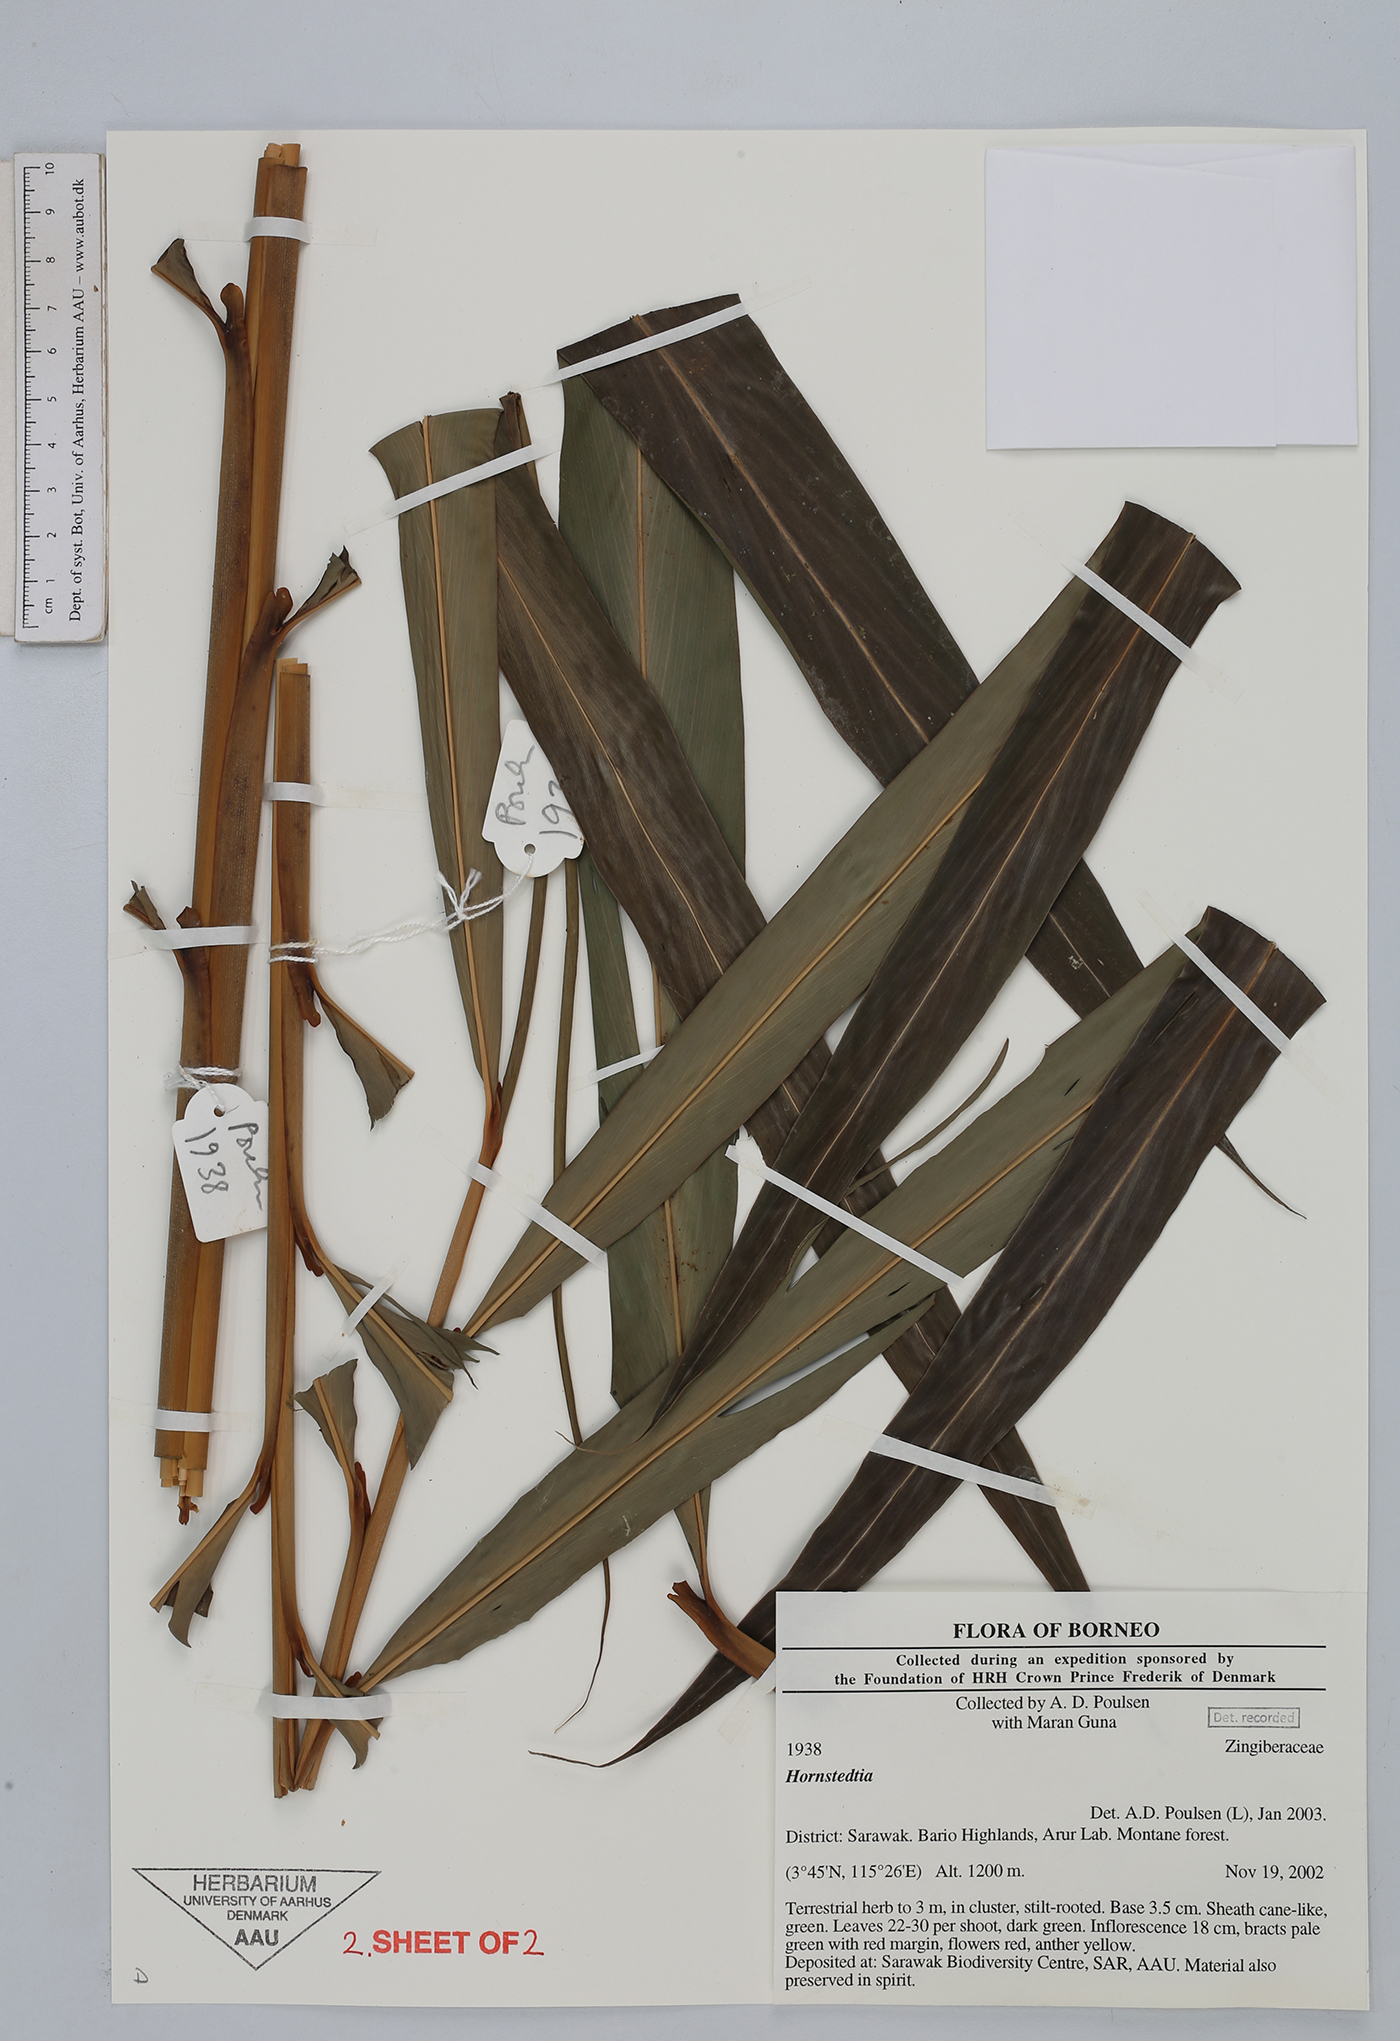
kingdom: Plantae
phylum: Tracheophyta
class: Liliopsida
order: Zingiberales
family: Zingiberaceae
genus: Hornstedtia
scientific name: Hornstedtia
